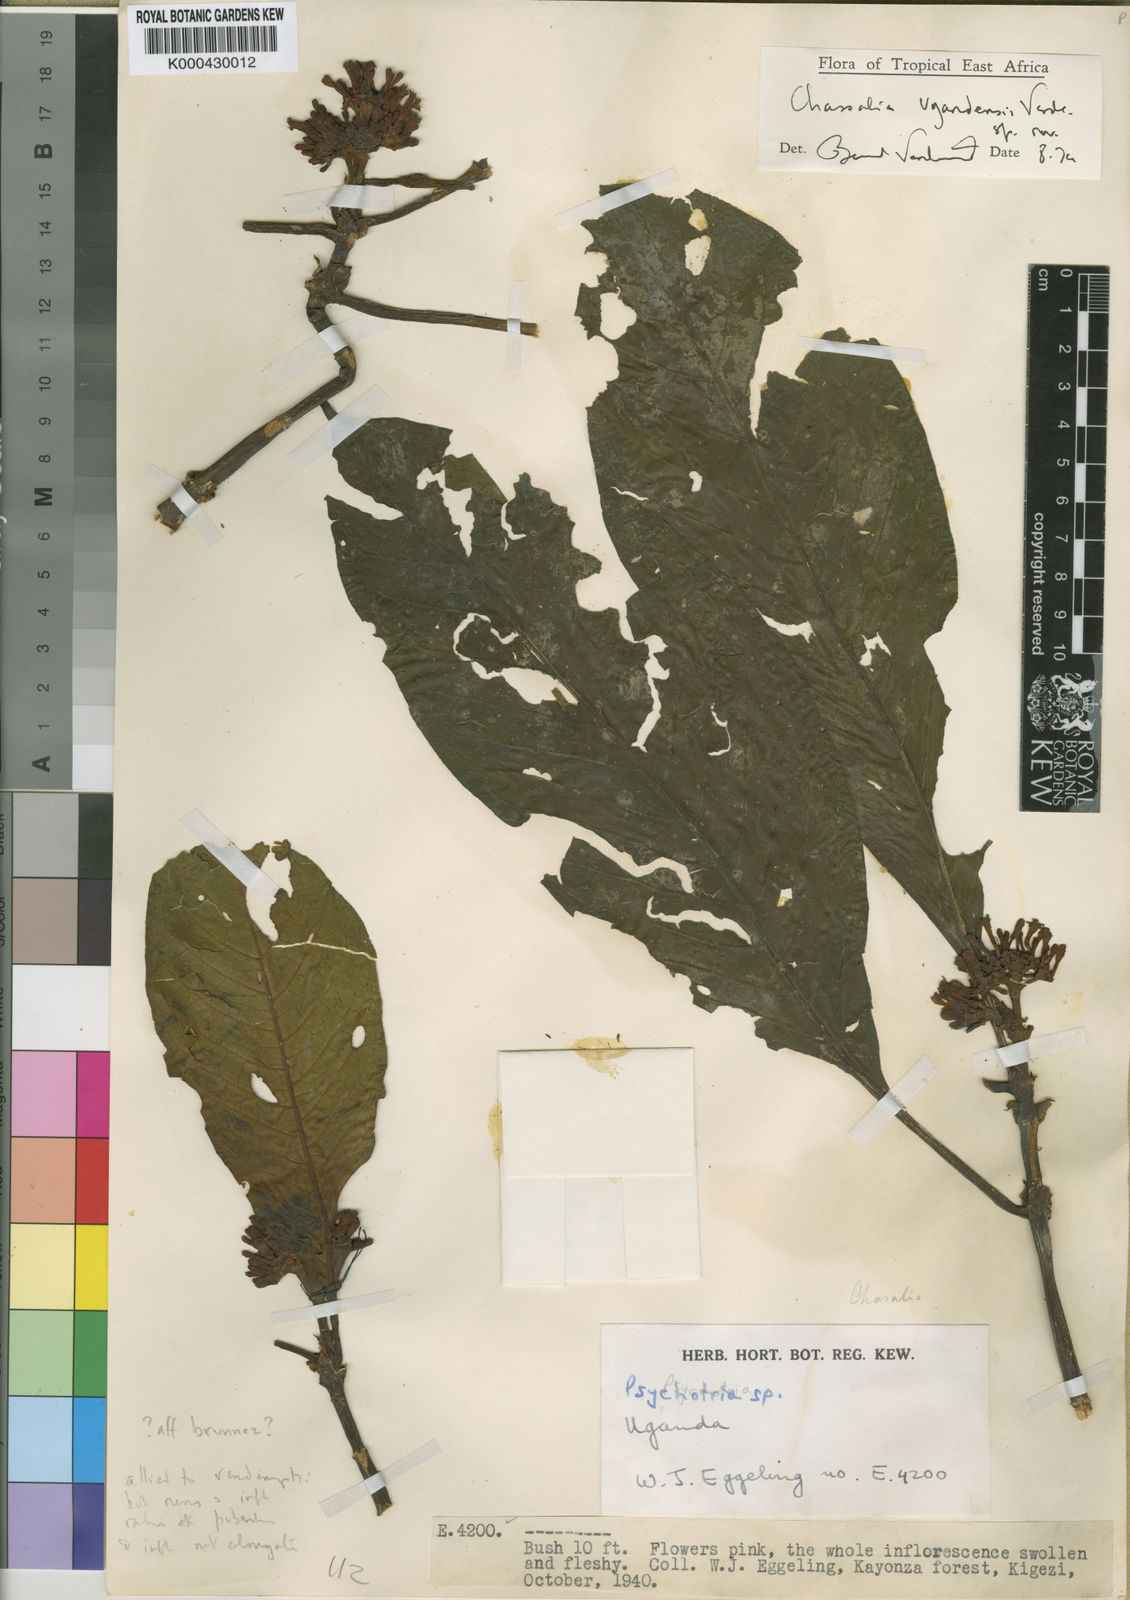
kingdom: Plantae
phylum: Tracheophyta
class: Magnoliopsida
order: Gentianales
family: Rubiaceae
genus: Chassalia
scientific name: Chassalia ugandensis
